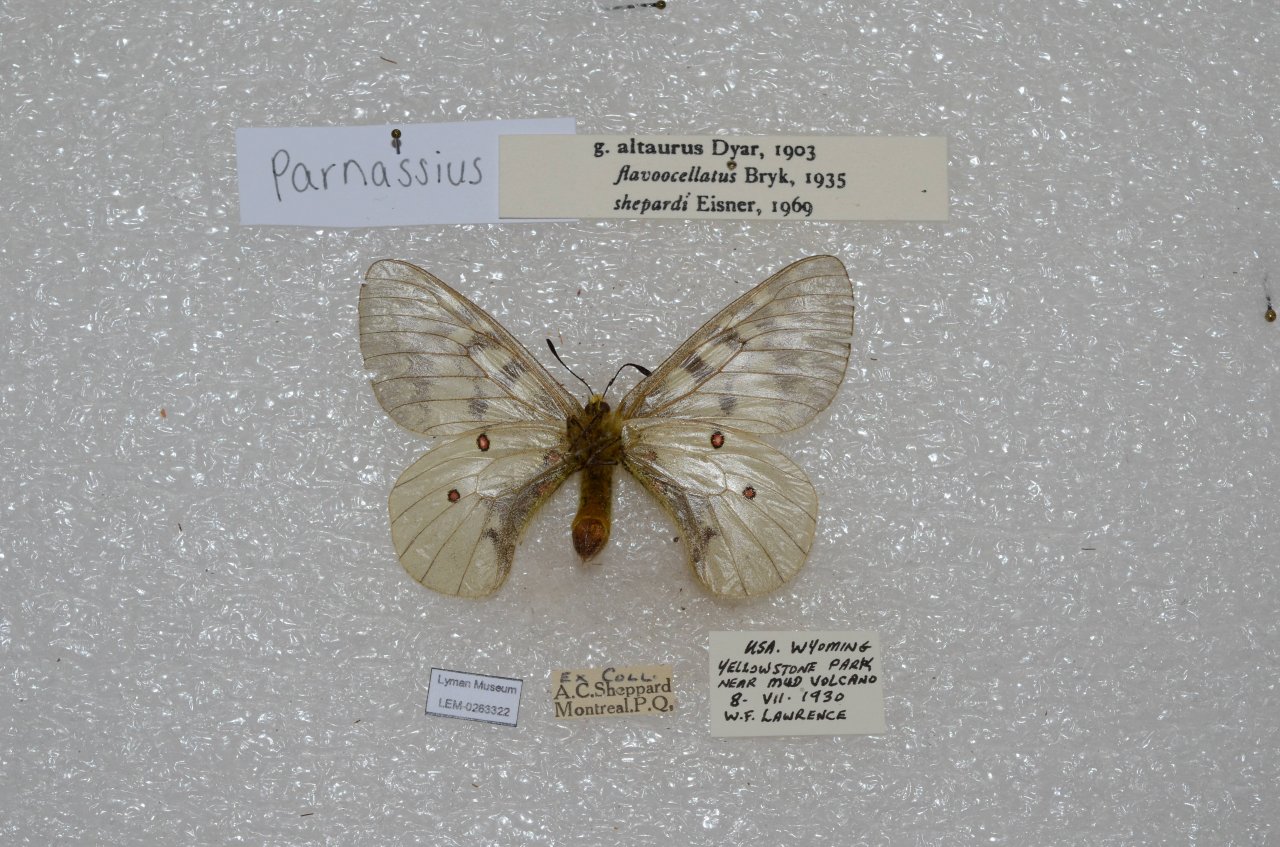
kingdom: Animalia
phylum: Arthropoda
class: Insecta
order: Lepidoptera
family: Papilionidae
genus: Parnassius
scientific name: Parnassius clodius
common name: Clodius Parnassian
